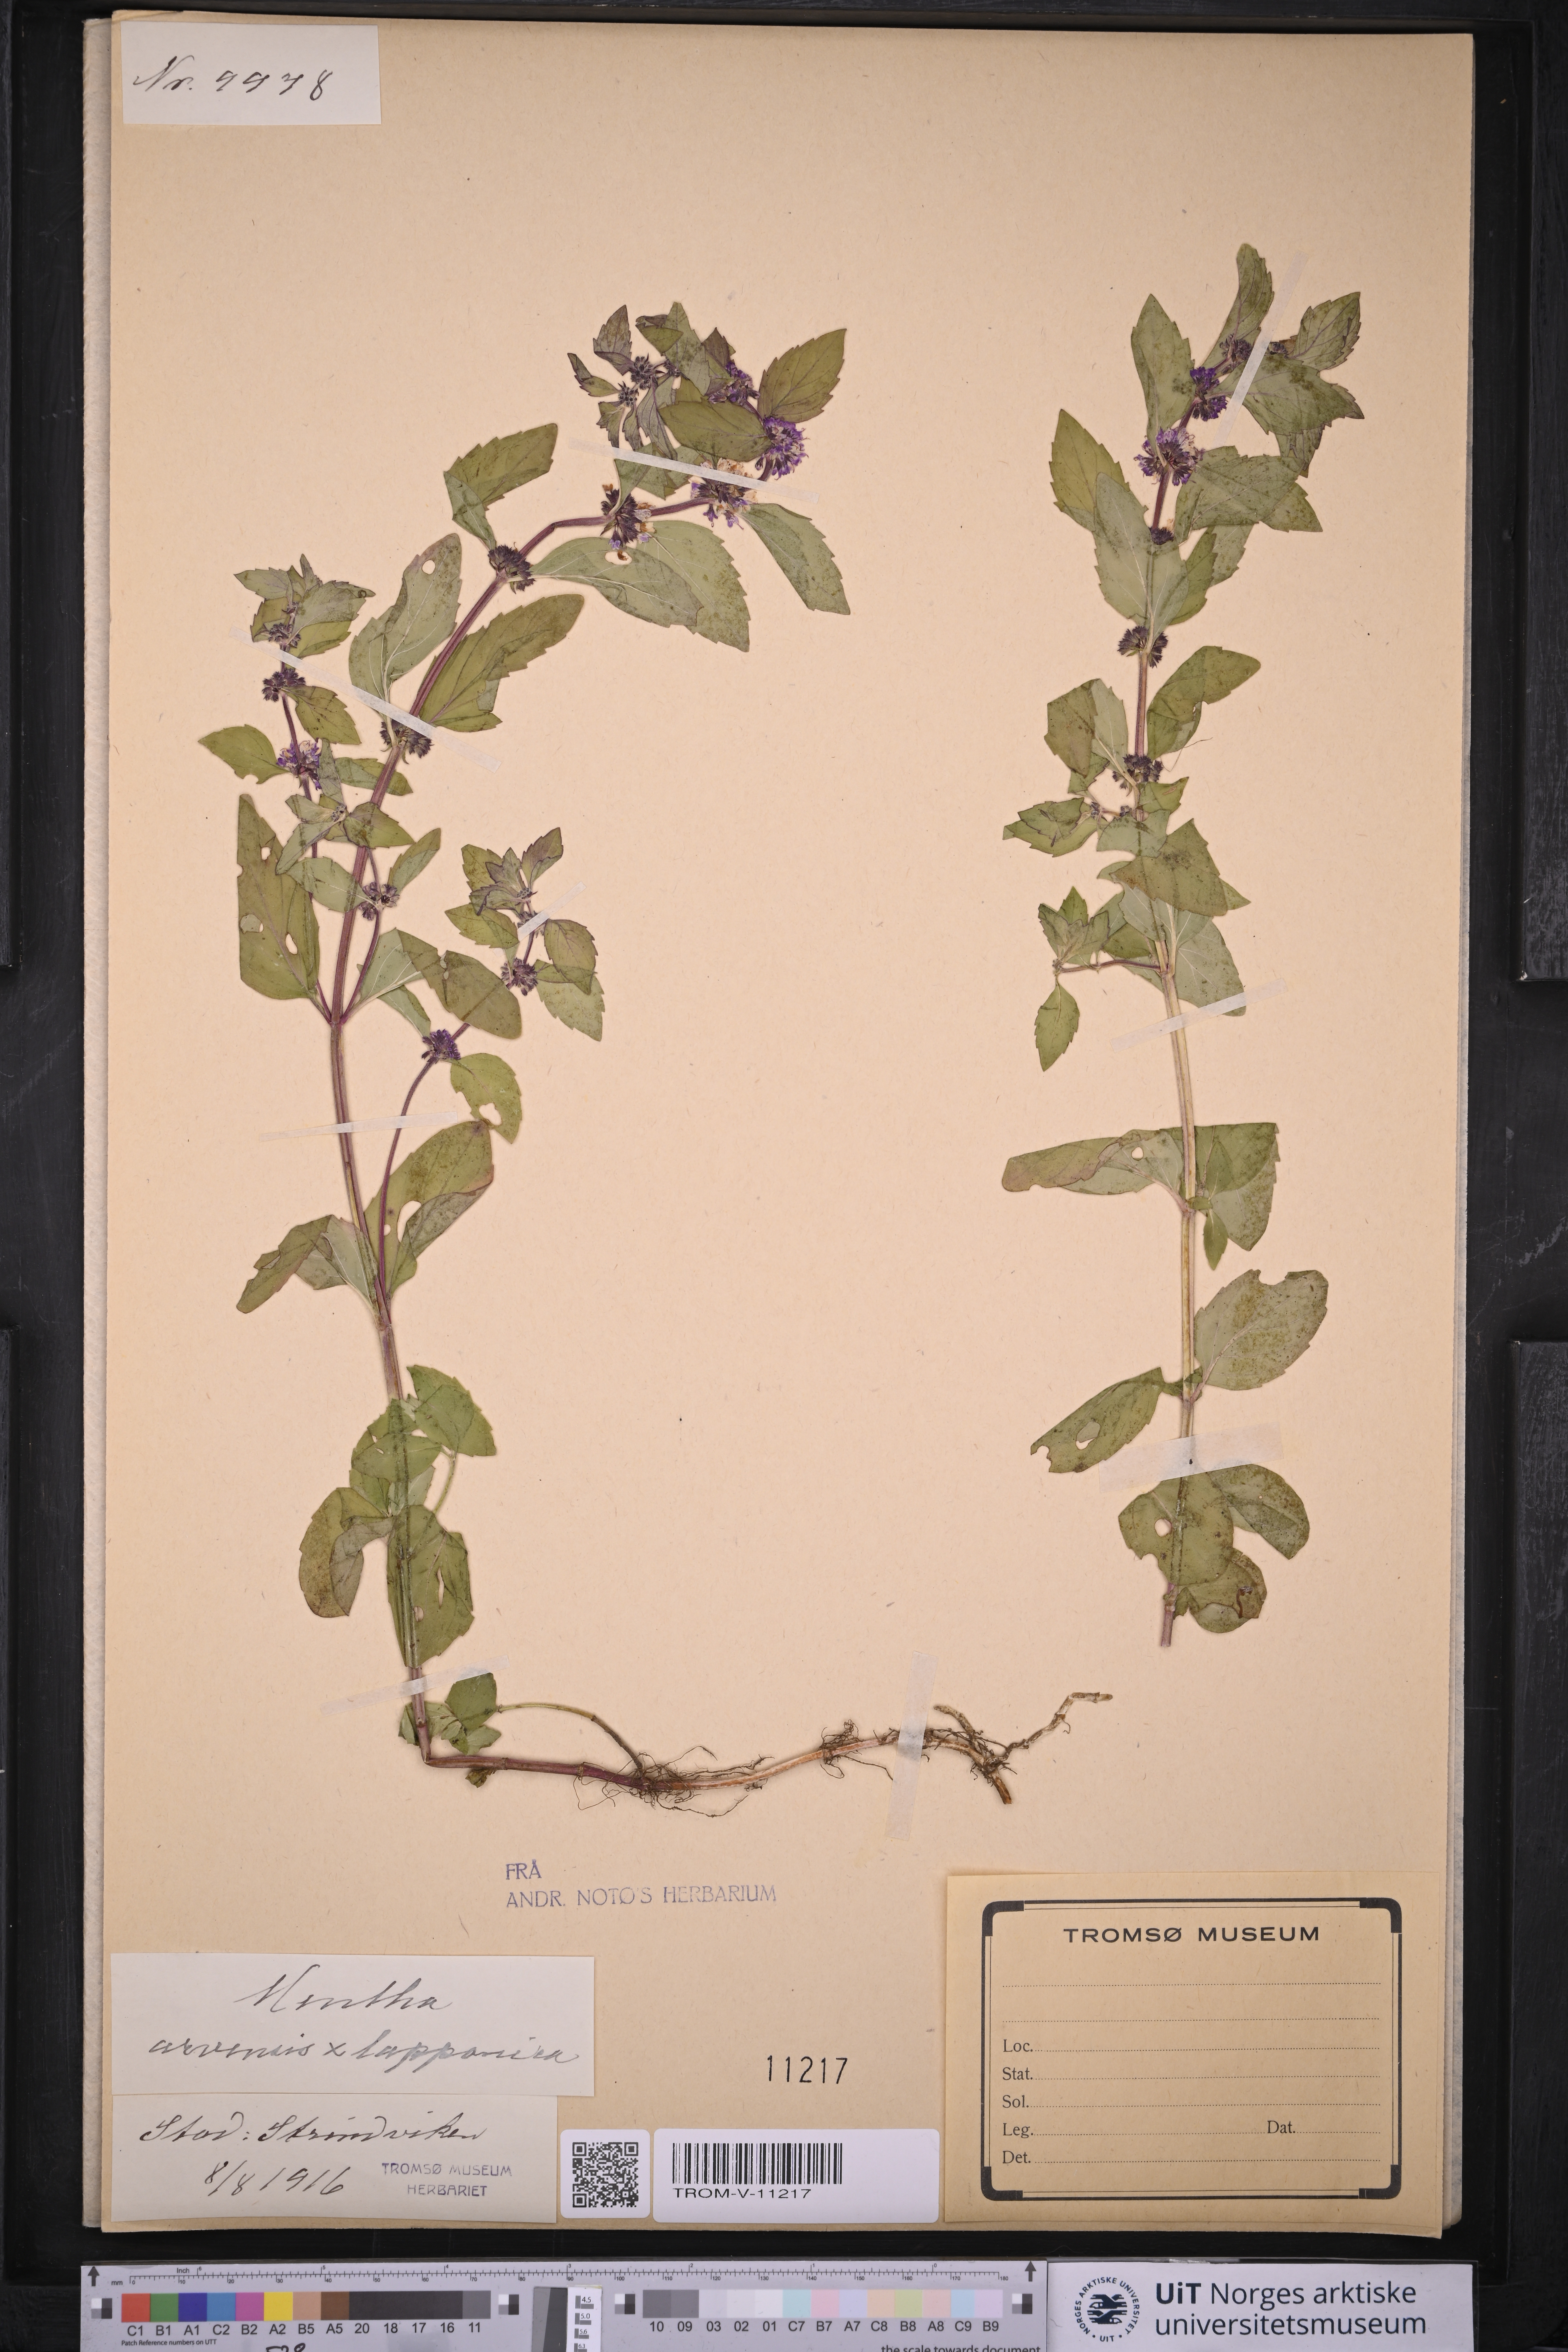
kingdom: Plantae
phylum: Tracheophyta
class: Magnoliopsida
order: Lamiales
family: Lamiaceae
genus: Mentha
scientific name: Mentha arvensis
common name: Corn mint
